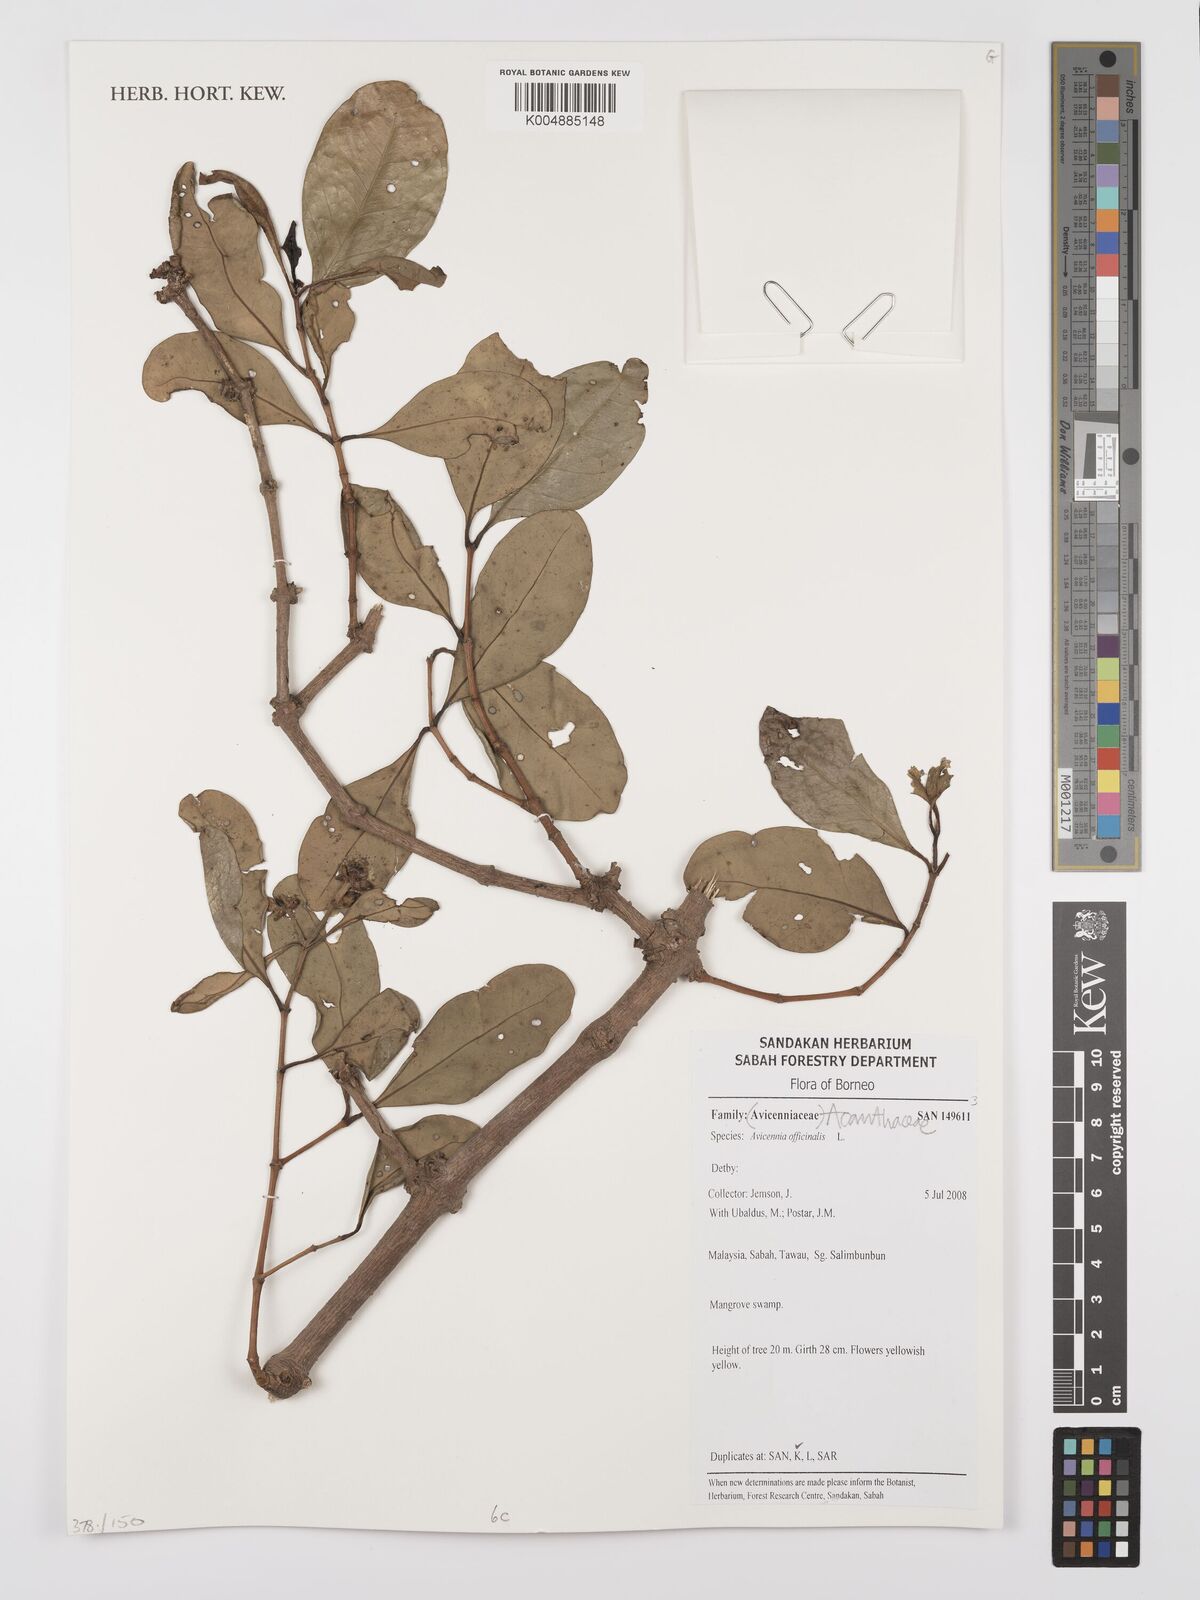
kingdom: Plantae
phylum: Tracheophyta
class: Magnoliopsida
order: Lamiales
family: Acanthaceae
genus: Avicennia
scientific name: Avicennia officinalis
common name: Baen
